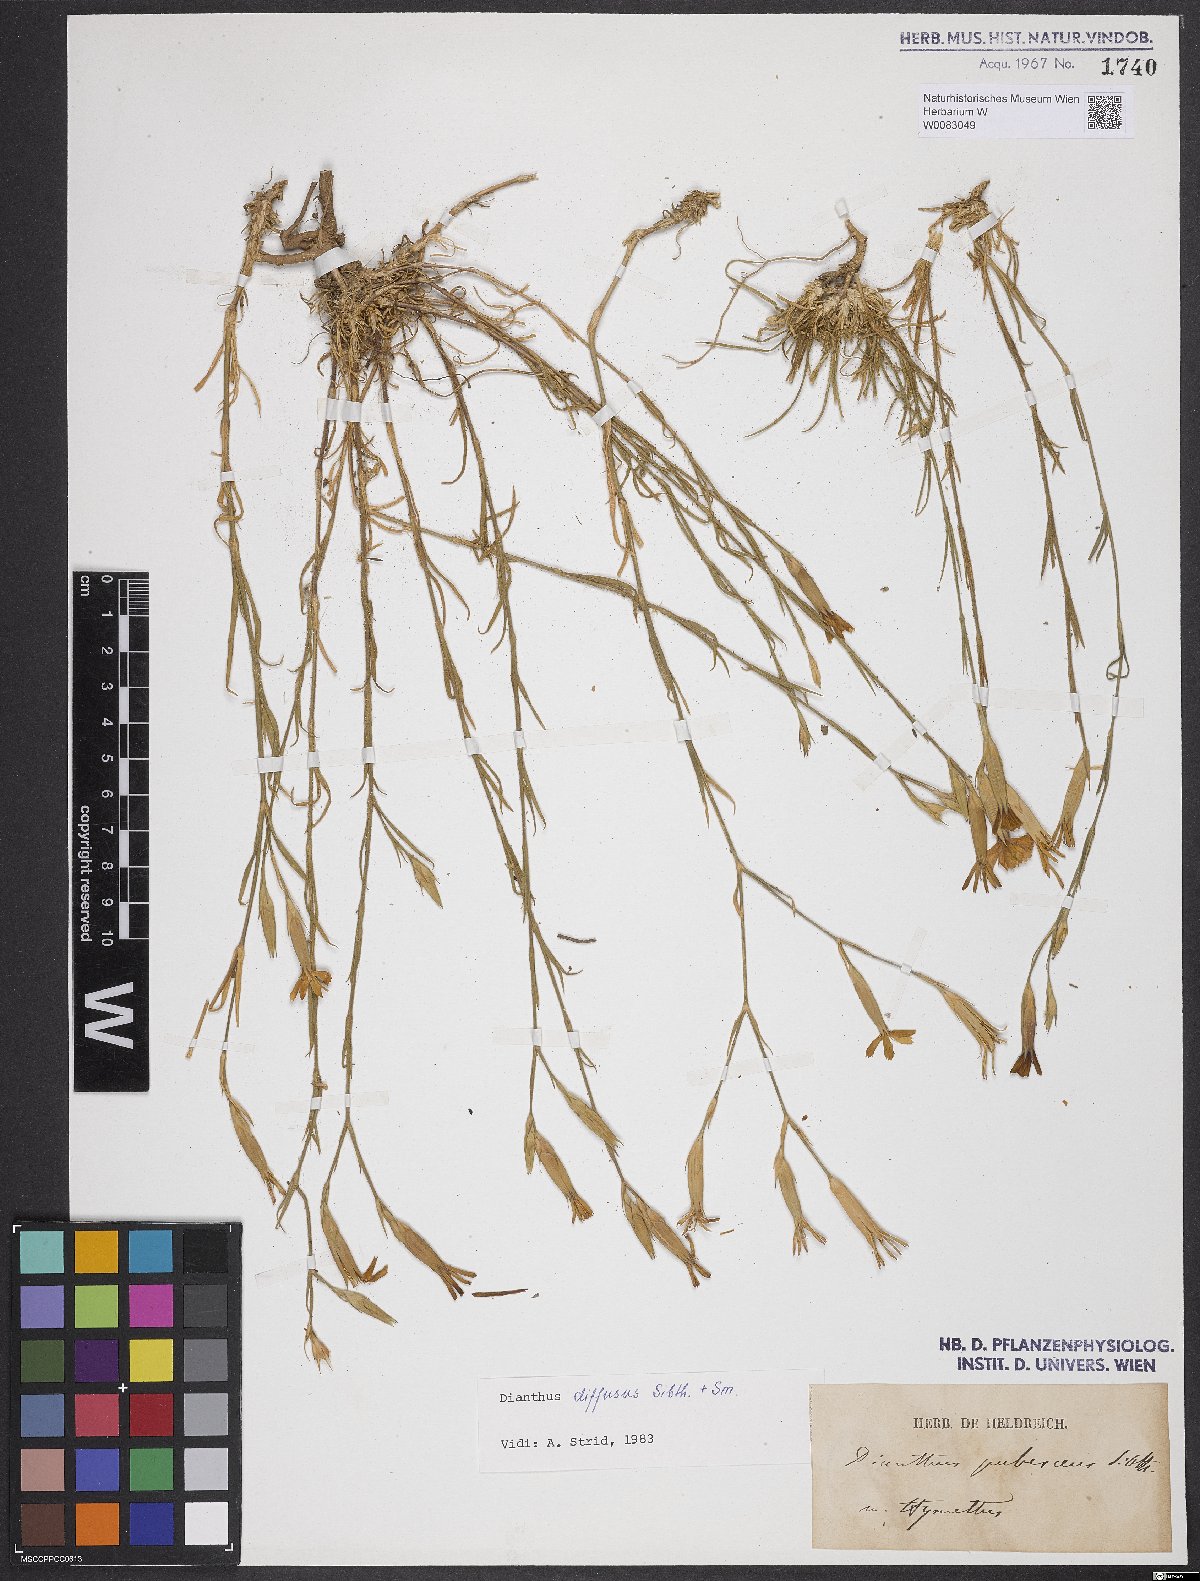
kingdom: Plantae
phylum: Tracheophyta
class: Magnoliopsida
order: Caryophyllales
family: Caryophyllaceae
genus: Dianthus
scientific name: Dianthus diffusus
